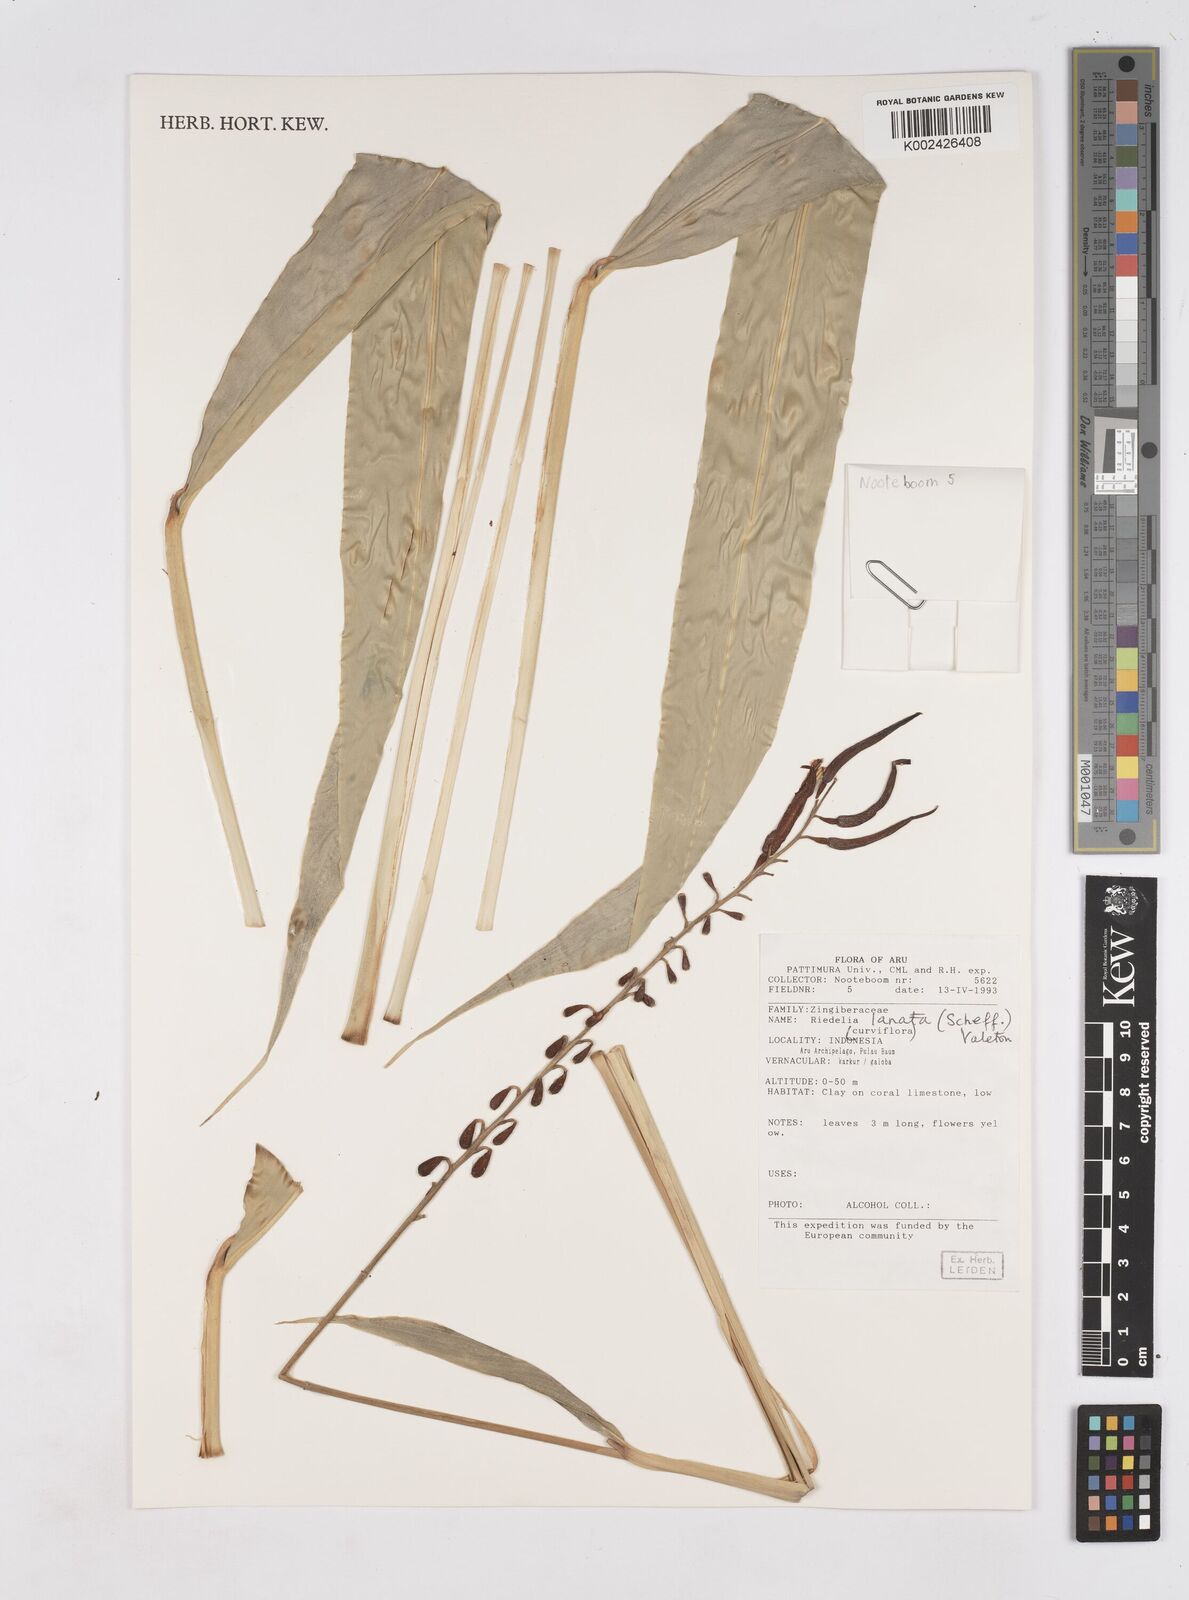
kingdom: Plantae
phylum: Tracheophyta
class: Liliopsida
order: Zingiberales
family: Zingiberaceae
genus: Riedelia
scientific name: Riedelia lanata
